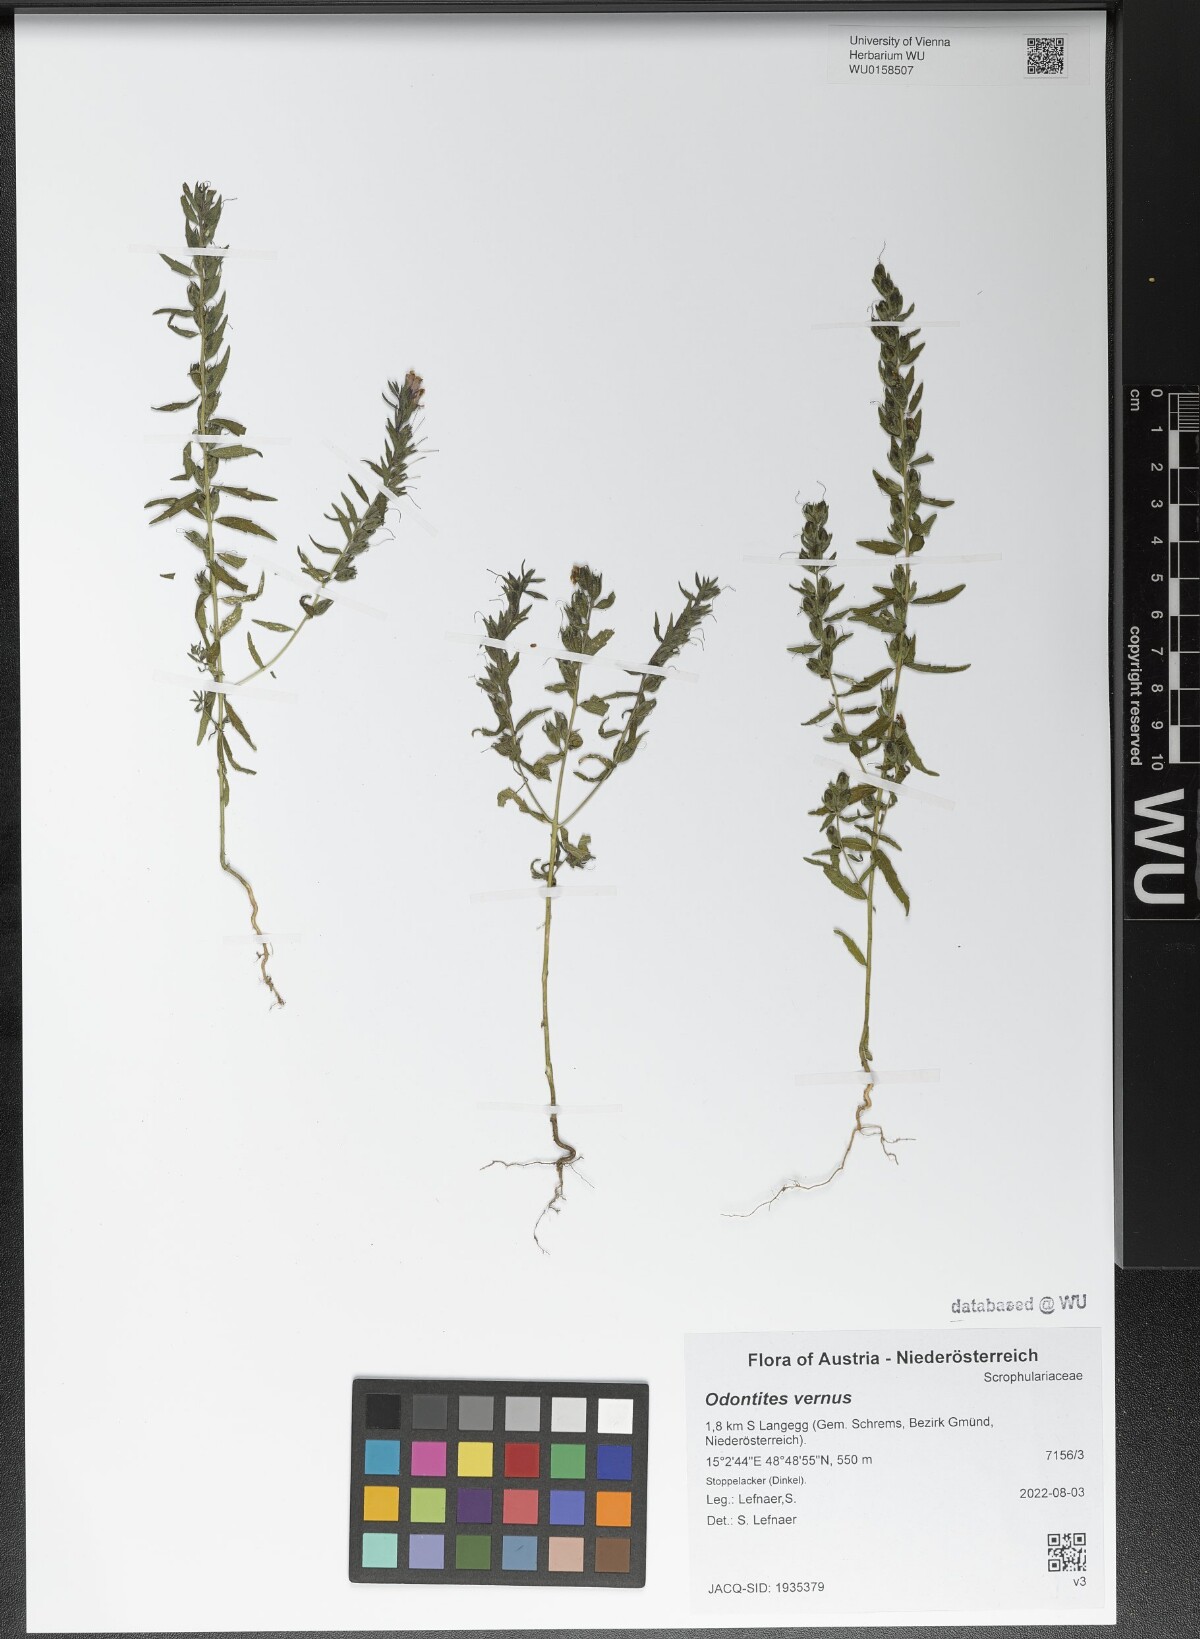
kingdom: Plantae
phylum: Tracheophyta
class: Magnoliopsida
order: Lamiales
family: Orobanchaceae
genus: Odontites
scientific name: Odontites vernus
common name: Red bartsia
